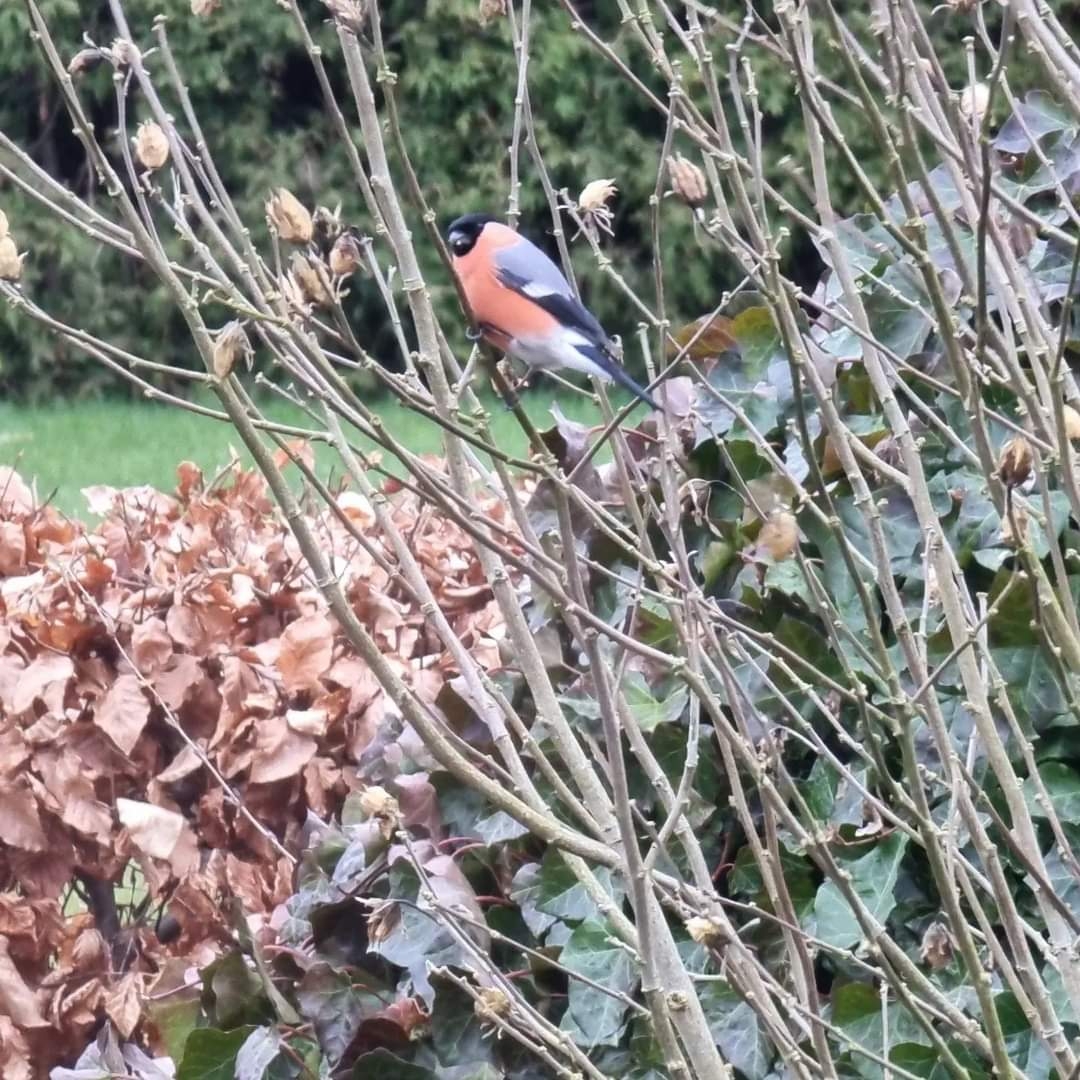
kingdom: Animalia
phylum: Chordata
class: Aves
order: Passeriformes
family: Fringillidae
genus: Pyrrhula
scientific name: Pyrrhula pyrrhula
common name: Dompap
